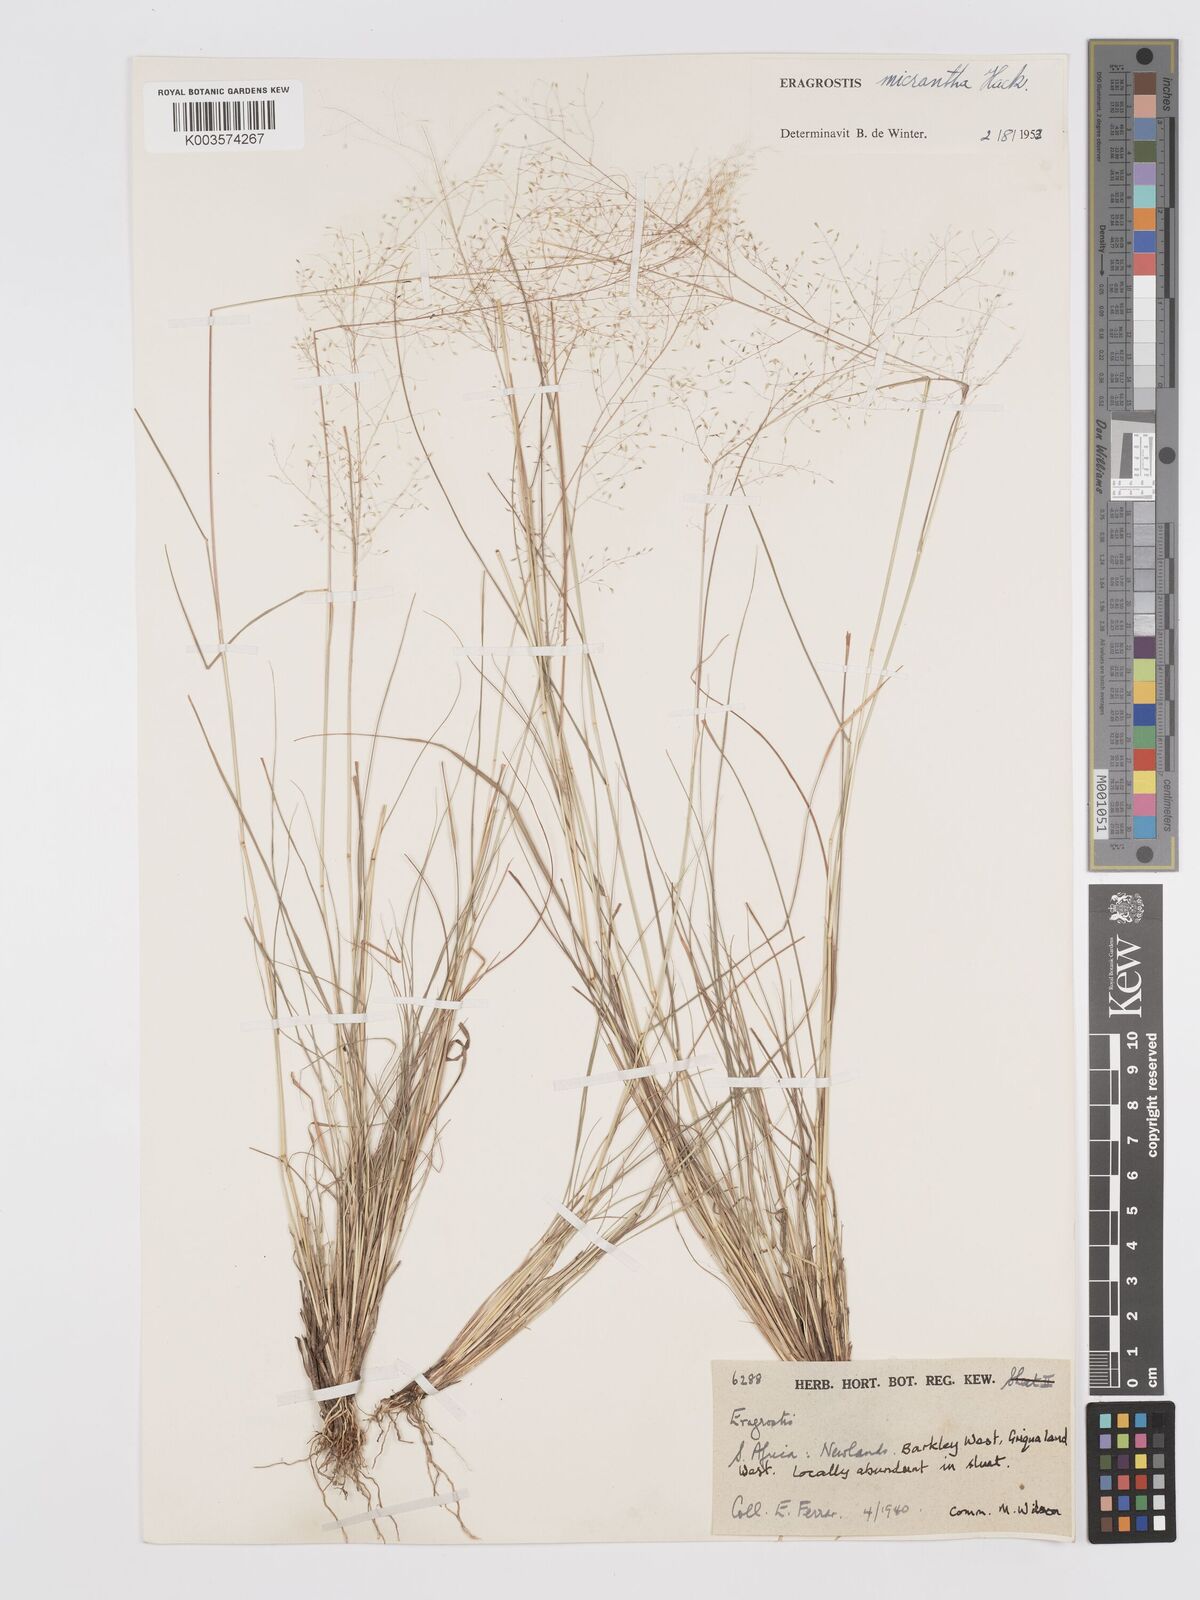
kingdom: Plantae
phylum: Tracheophyta
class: Liliopsida
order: Poales
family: Poaceae
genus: Eragrostis
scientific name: Eragrostis micrantha
